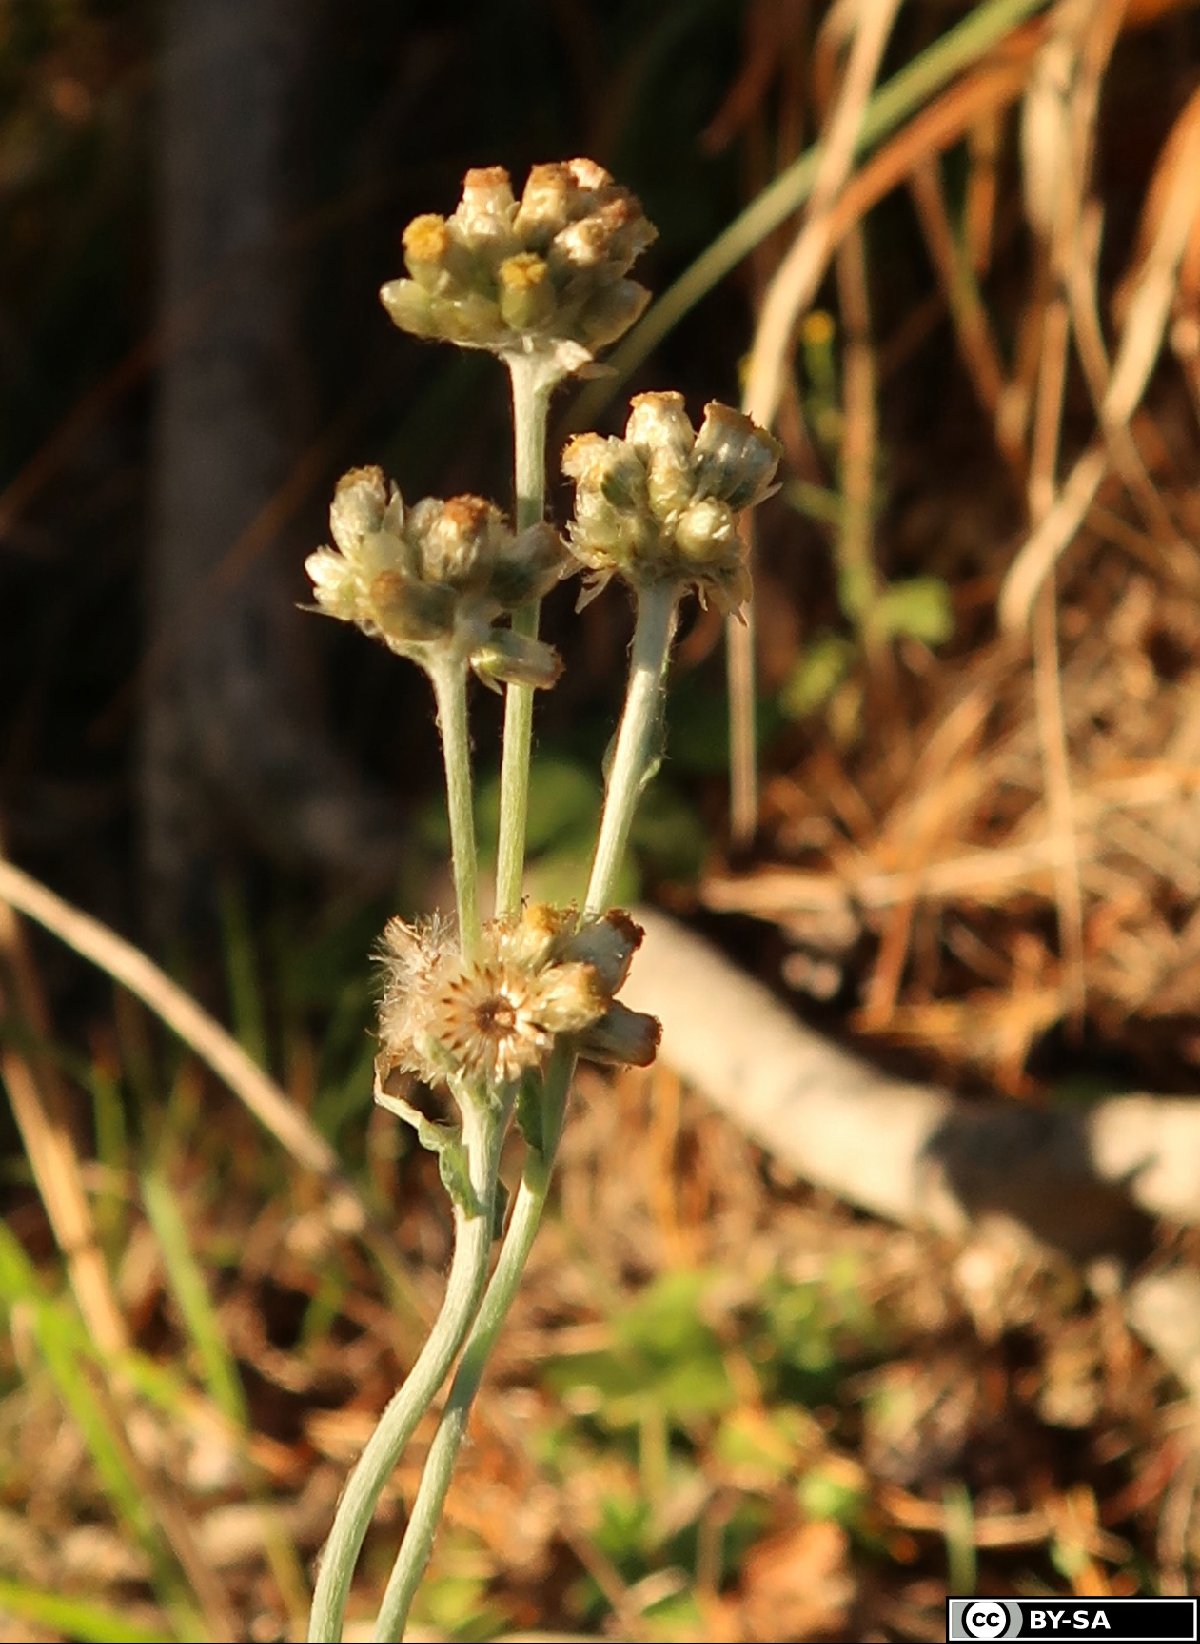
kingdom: Plantae
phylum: Tracheophyta
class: Magnoliopsida
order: Asterales
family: Asteraceae
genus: Helichrysum
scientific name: Helichrysum luteoalbum
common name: Daisy
